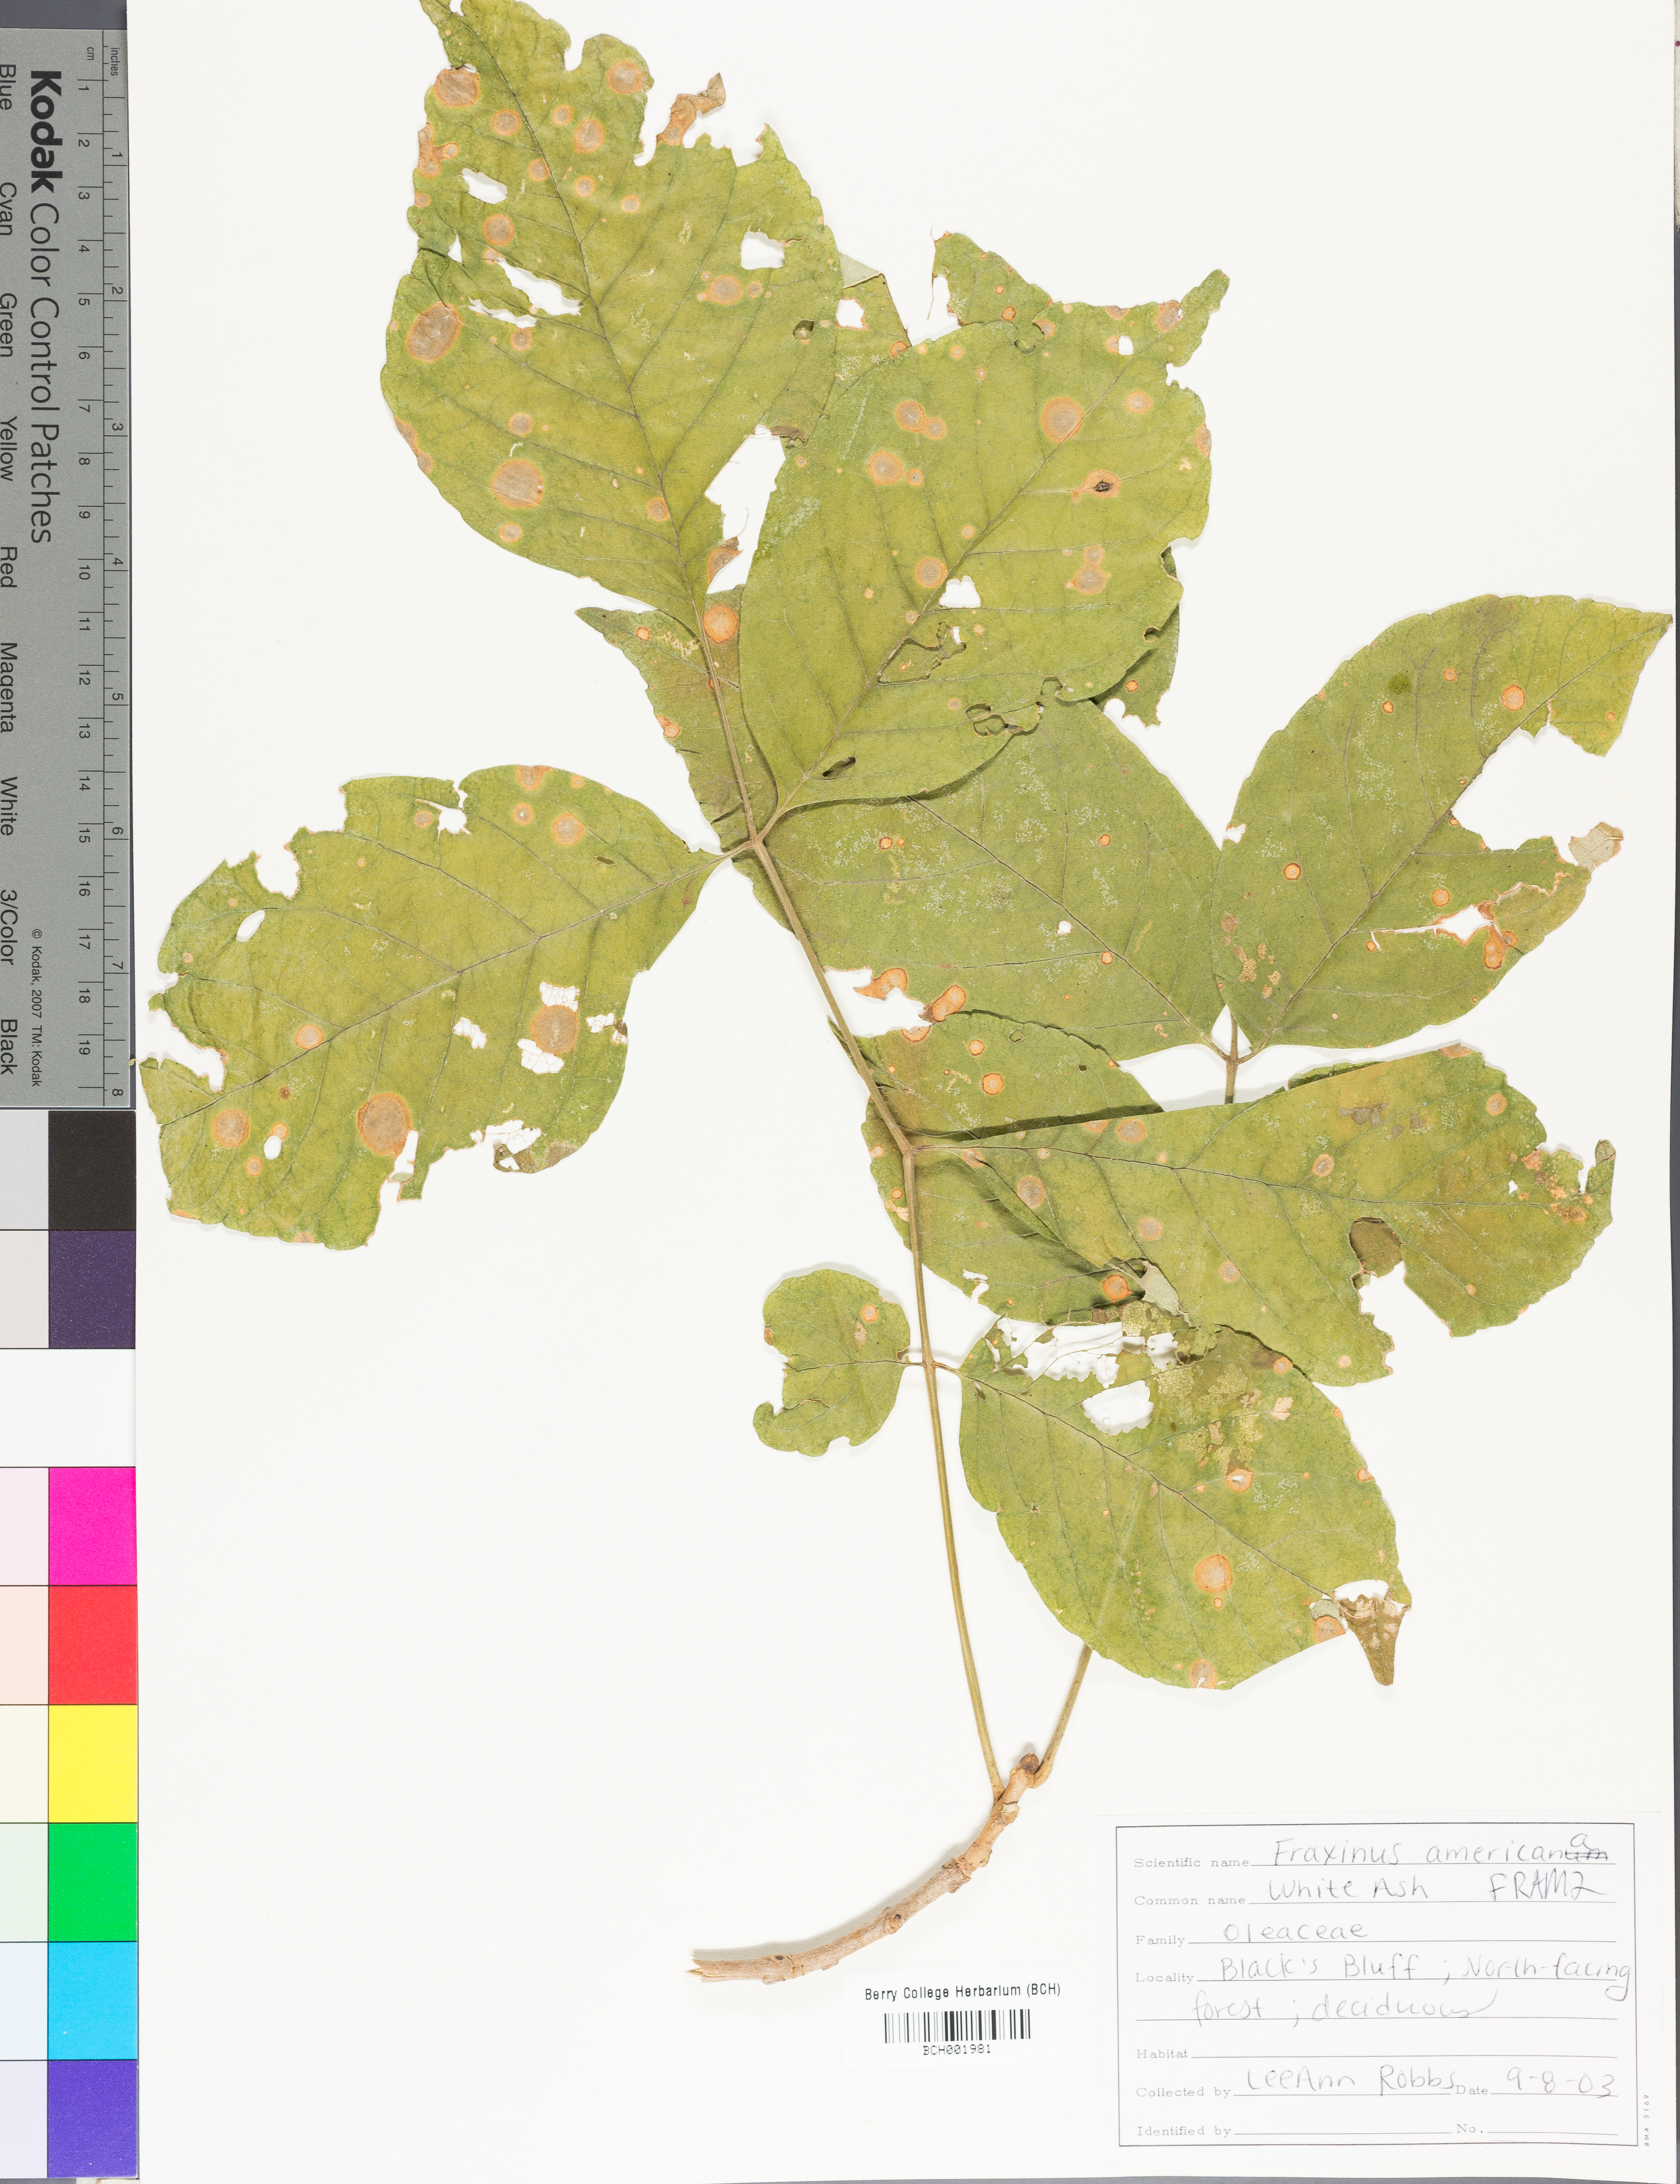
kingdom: Plantae
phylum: Tracheophyta
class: Magnoliopsida
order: Lamiales
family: Oleaceae
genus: Fraxinus
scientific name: Fraxinus americana
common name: White ash
